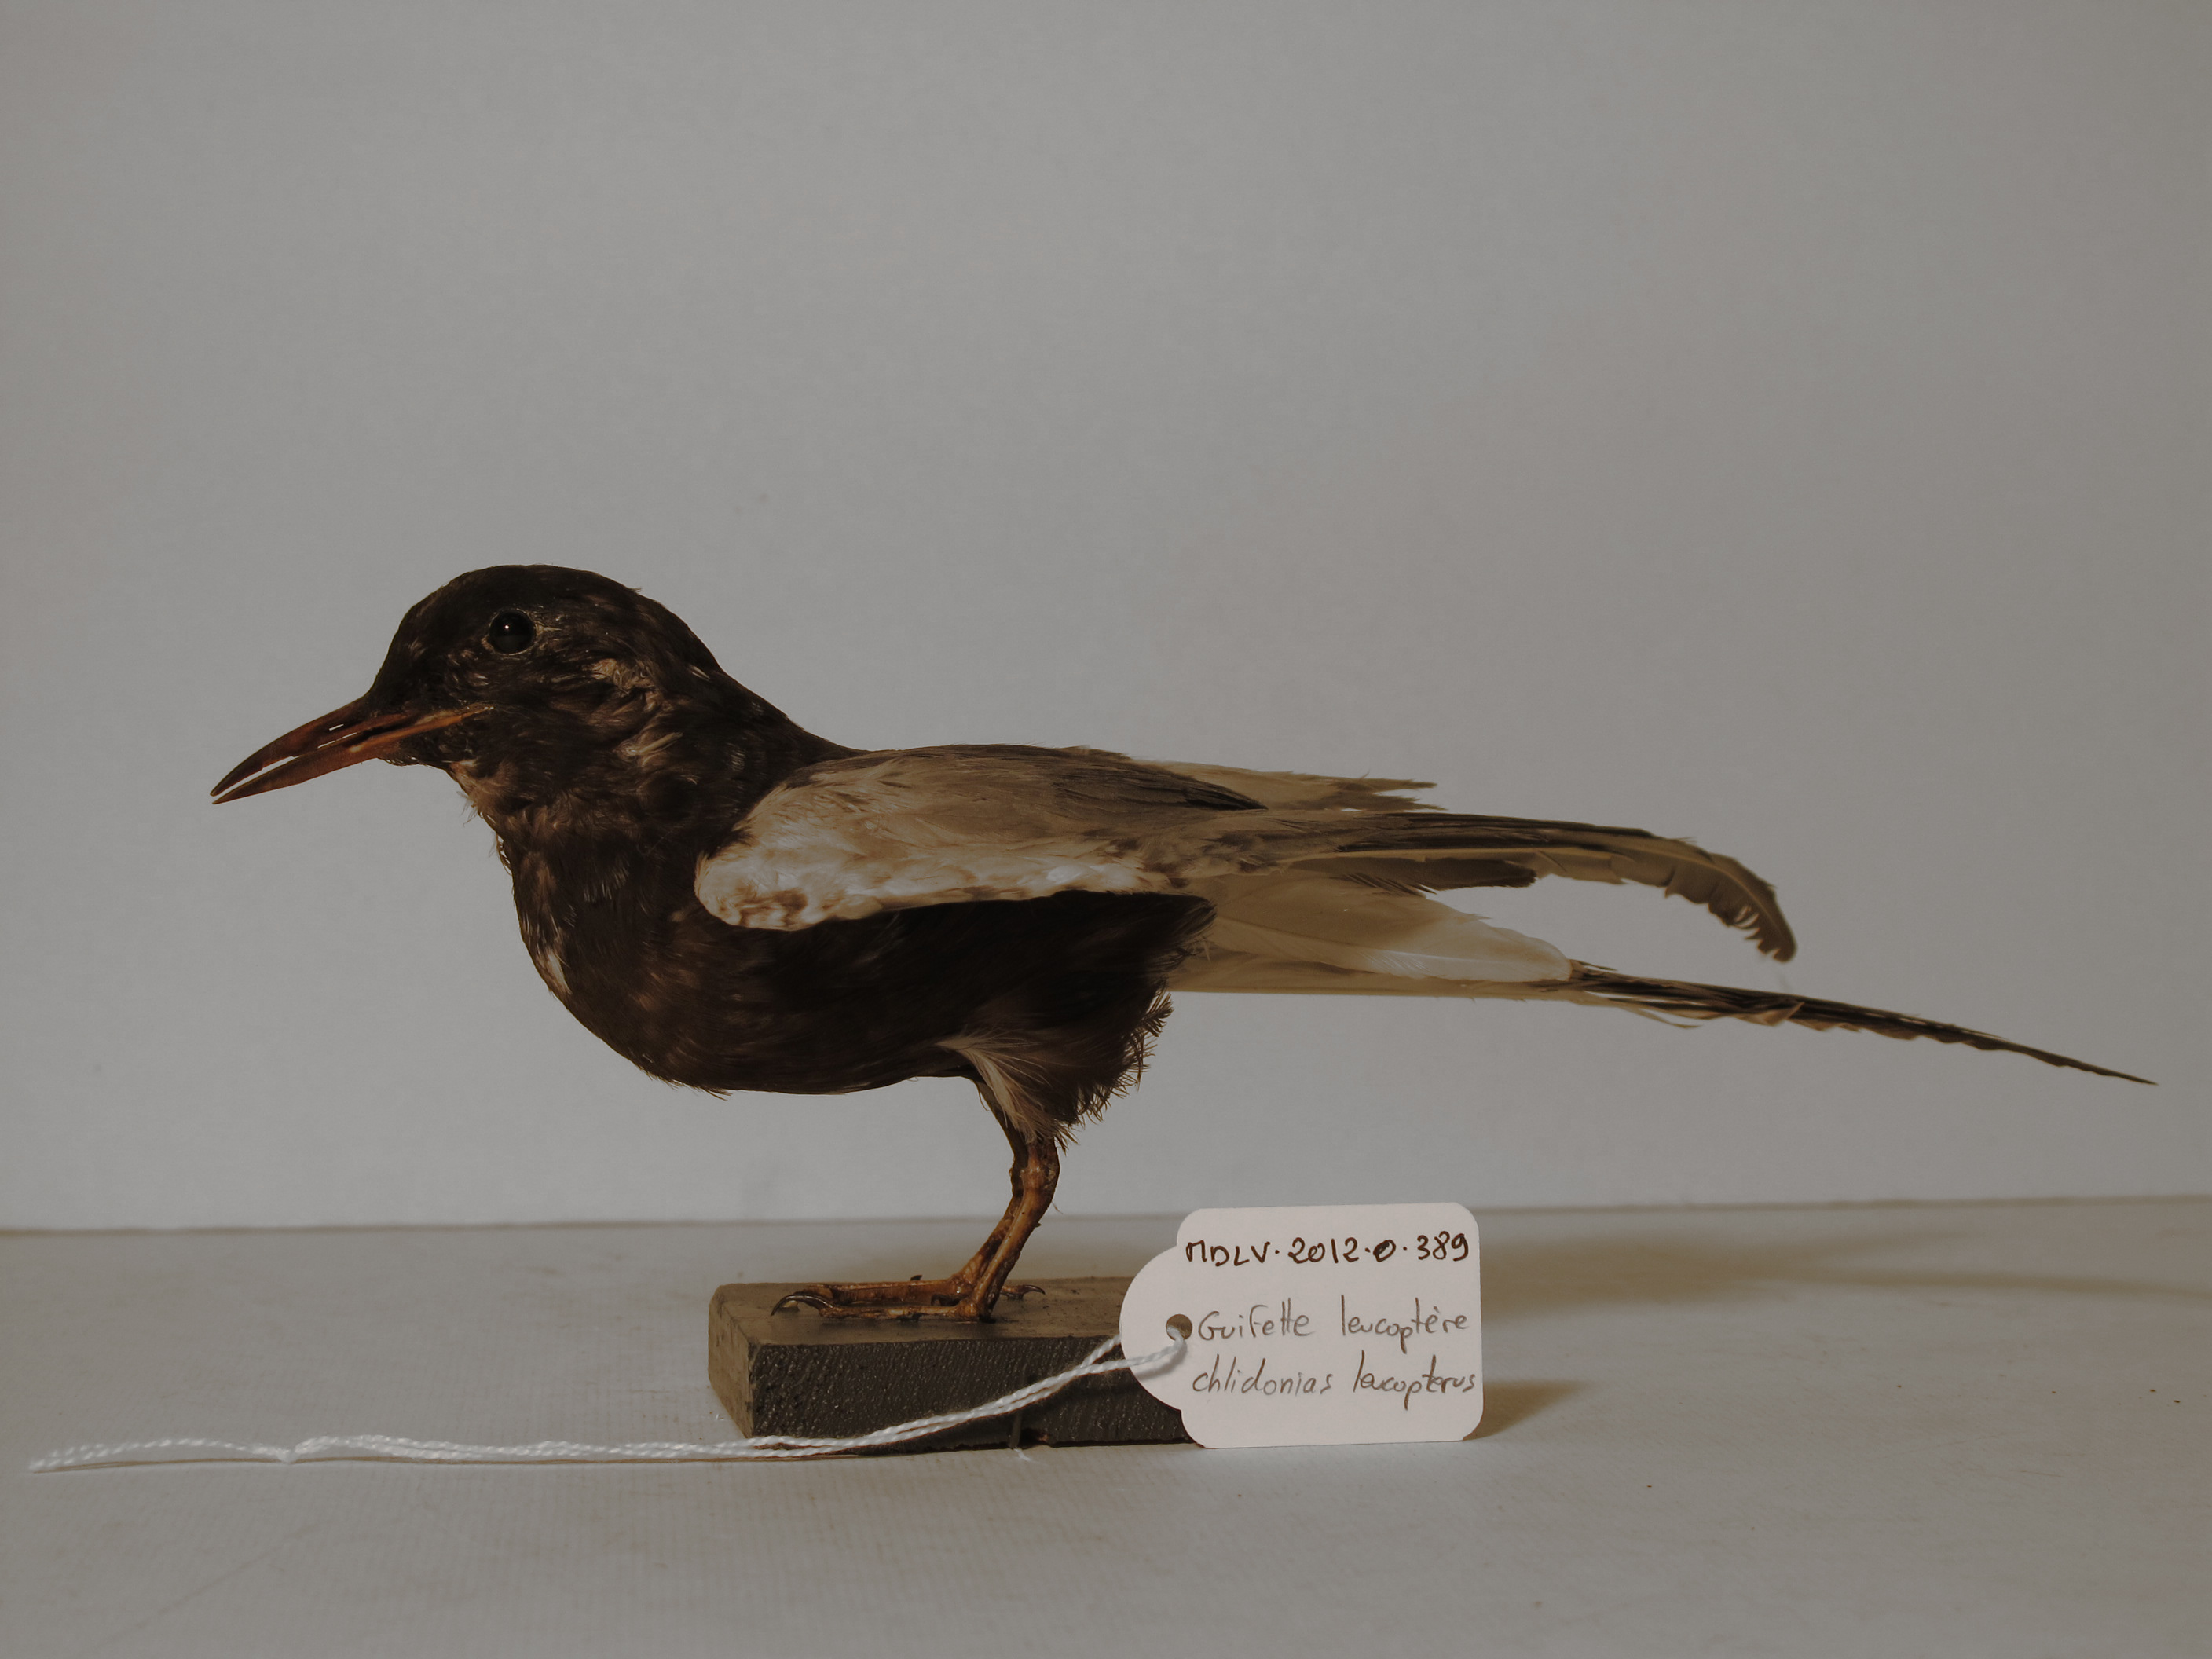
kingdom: Animalia
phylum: Chordata
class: Aves
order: Charadriiformes
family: Laridae
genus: Chlidonias
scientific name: Chlidonias leucopterus
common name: White-winged tern
